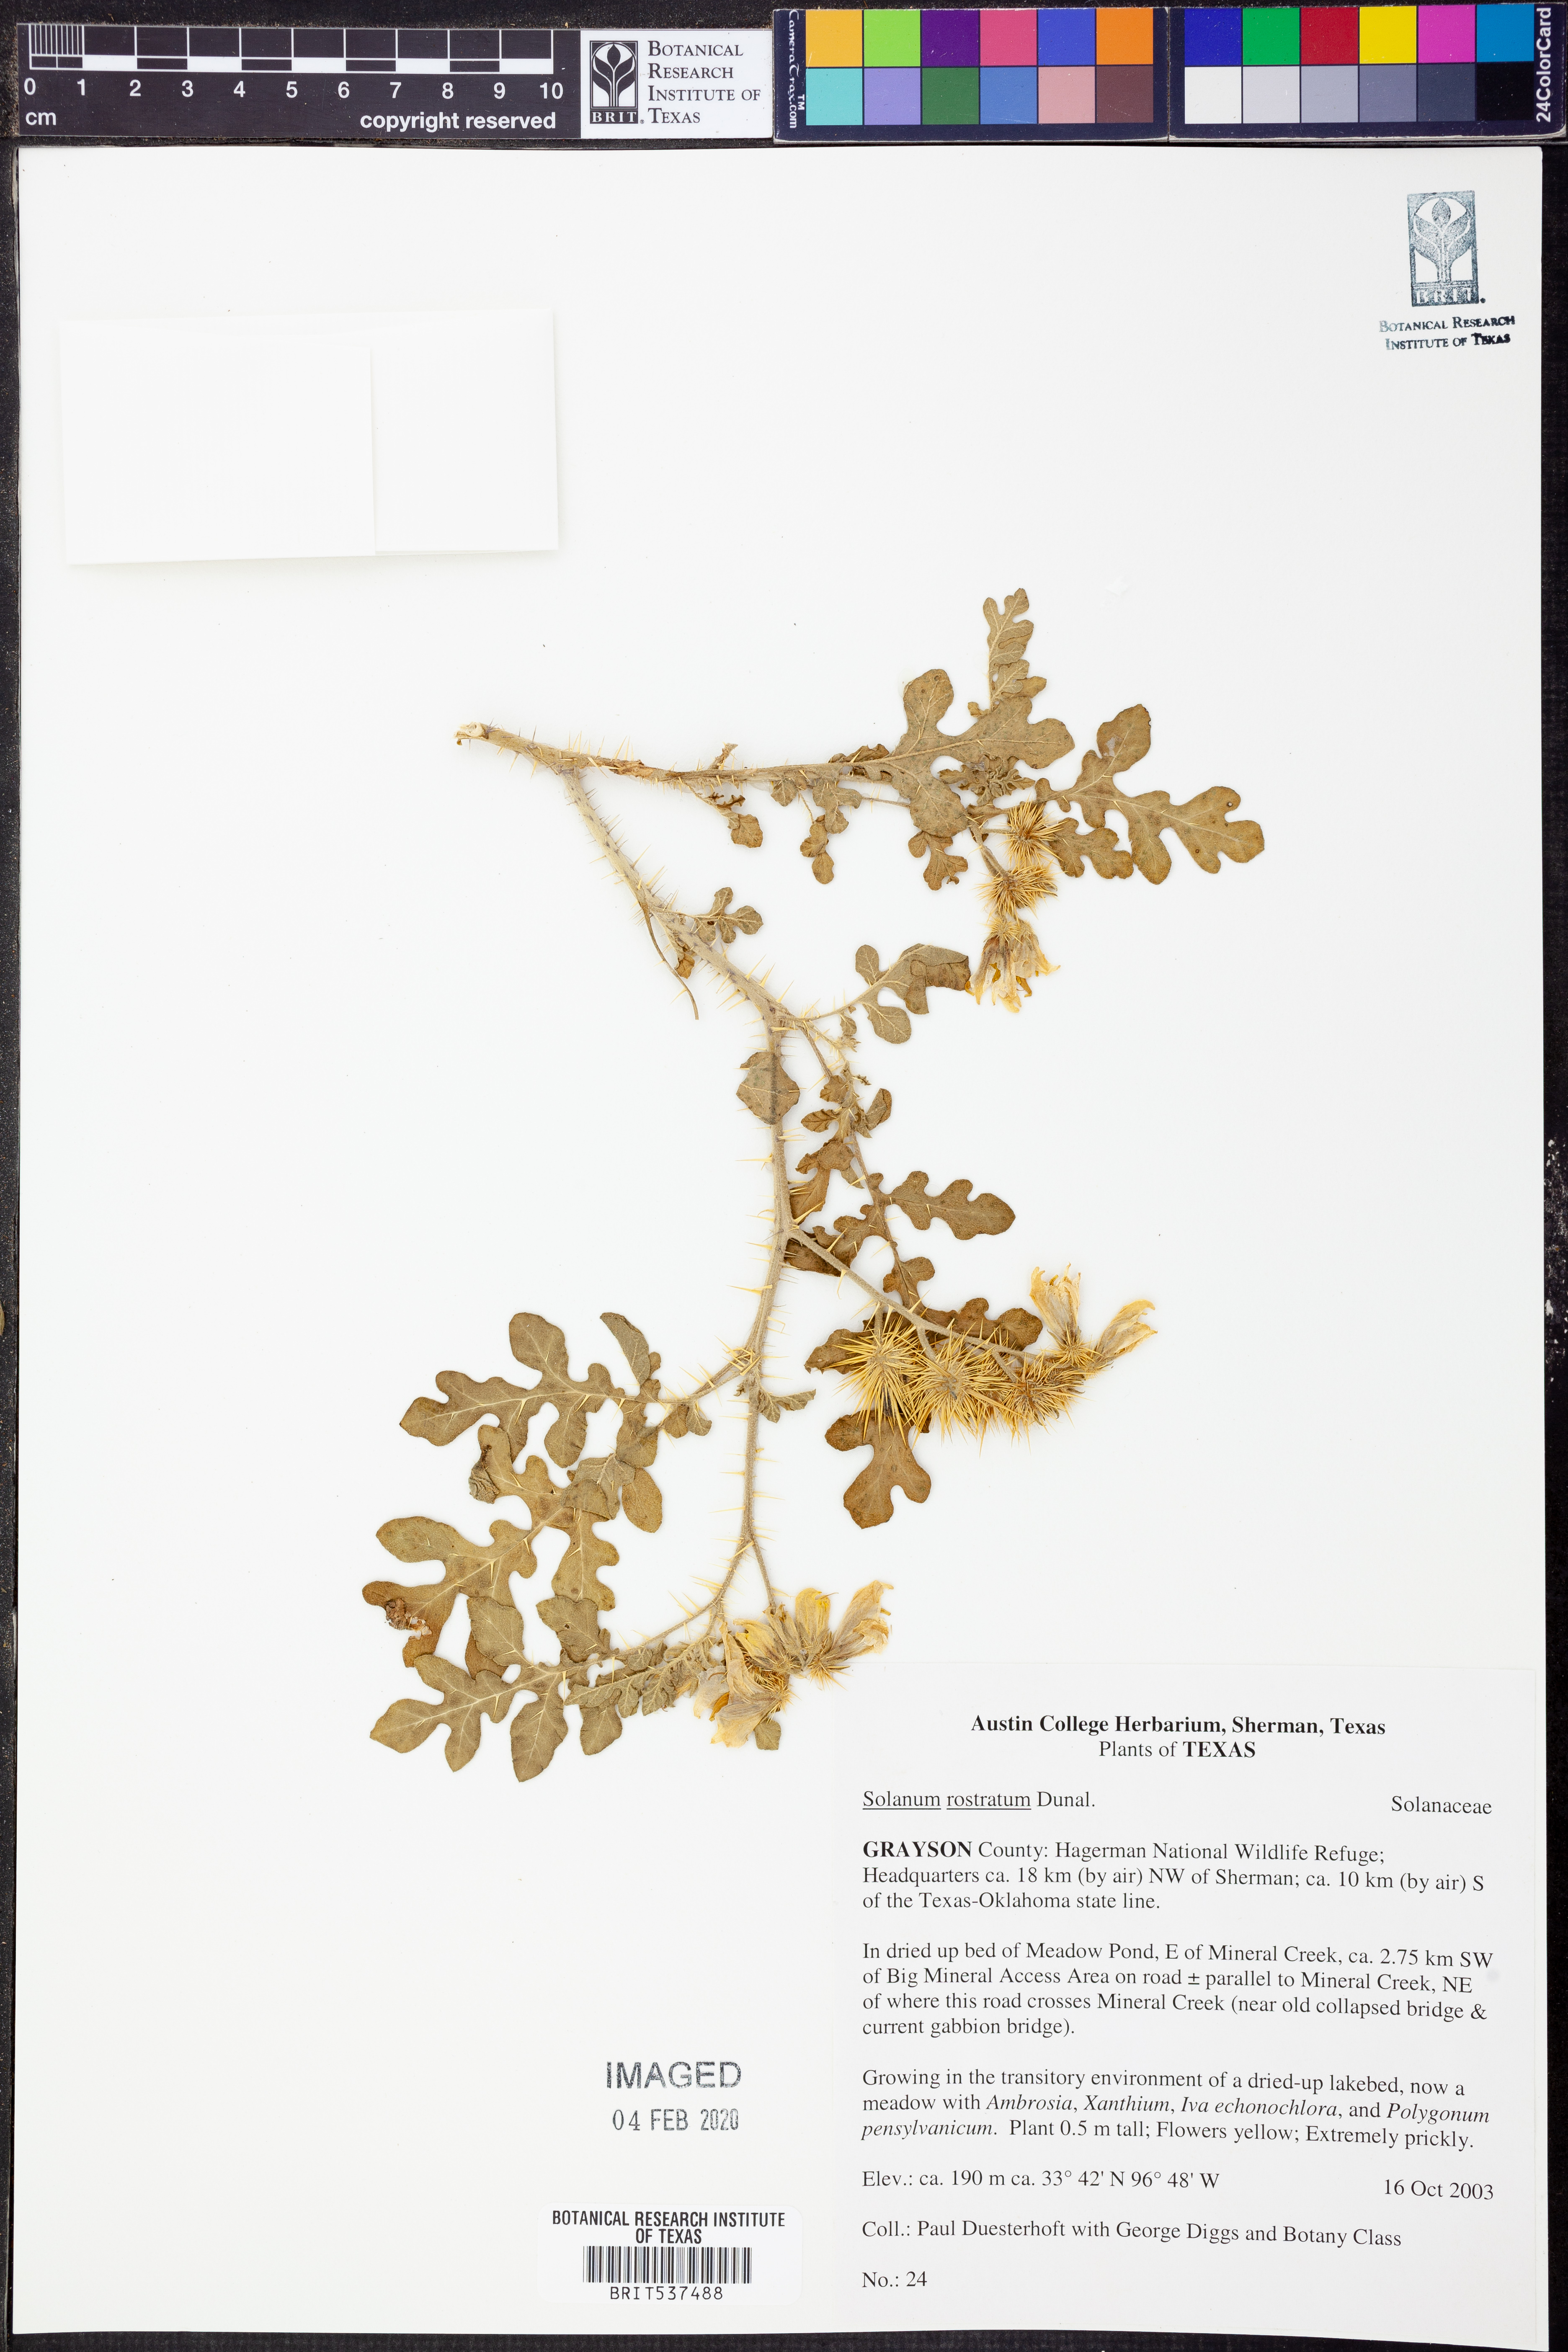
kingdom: Plantae
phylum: Tracheophyta
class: Magnoliopsida
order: Solanales
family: Solanaceae
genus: Solanum
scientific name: Solanum angustifolium
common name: Buffalobur nightshade
